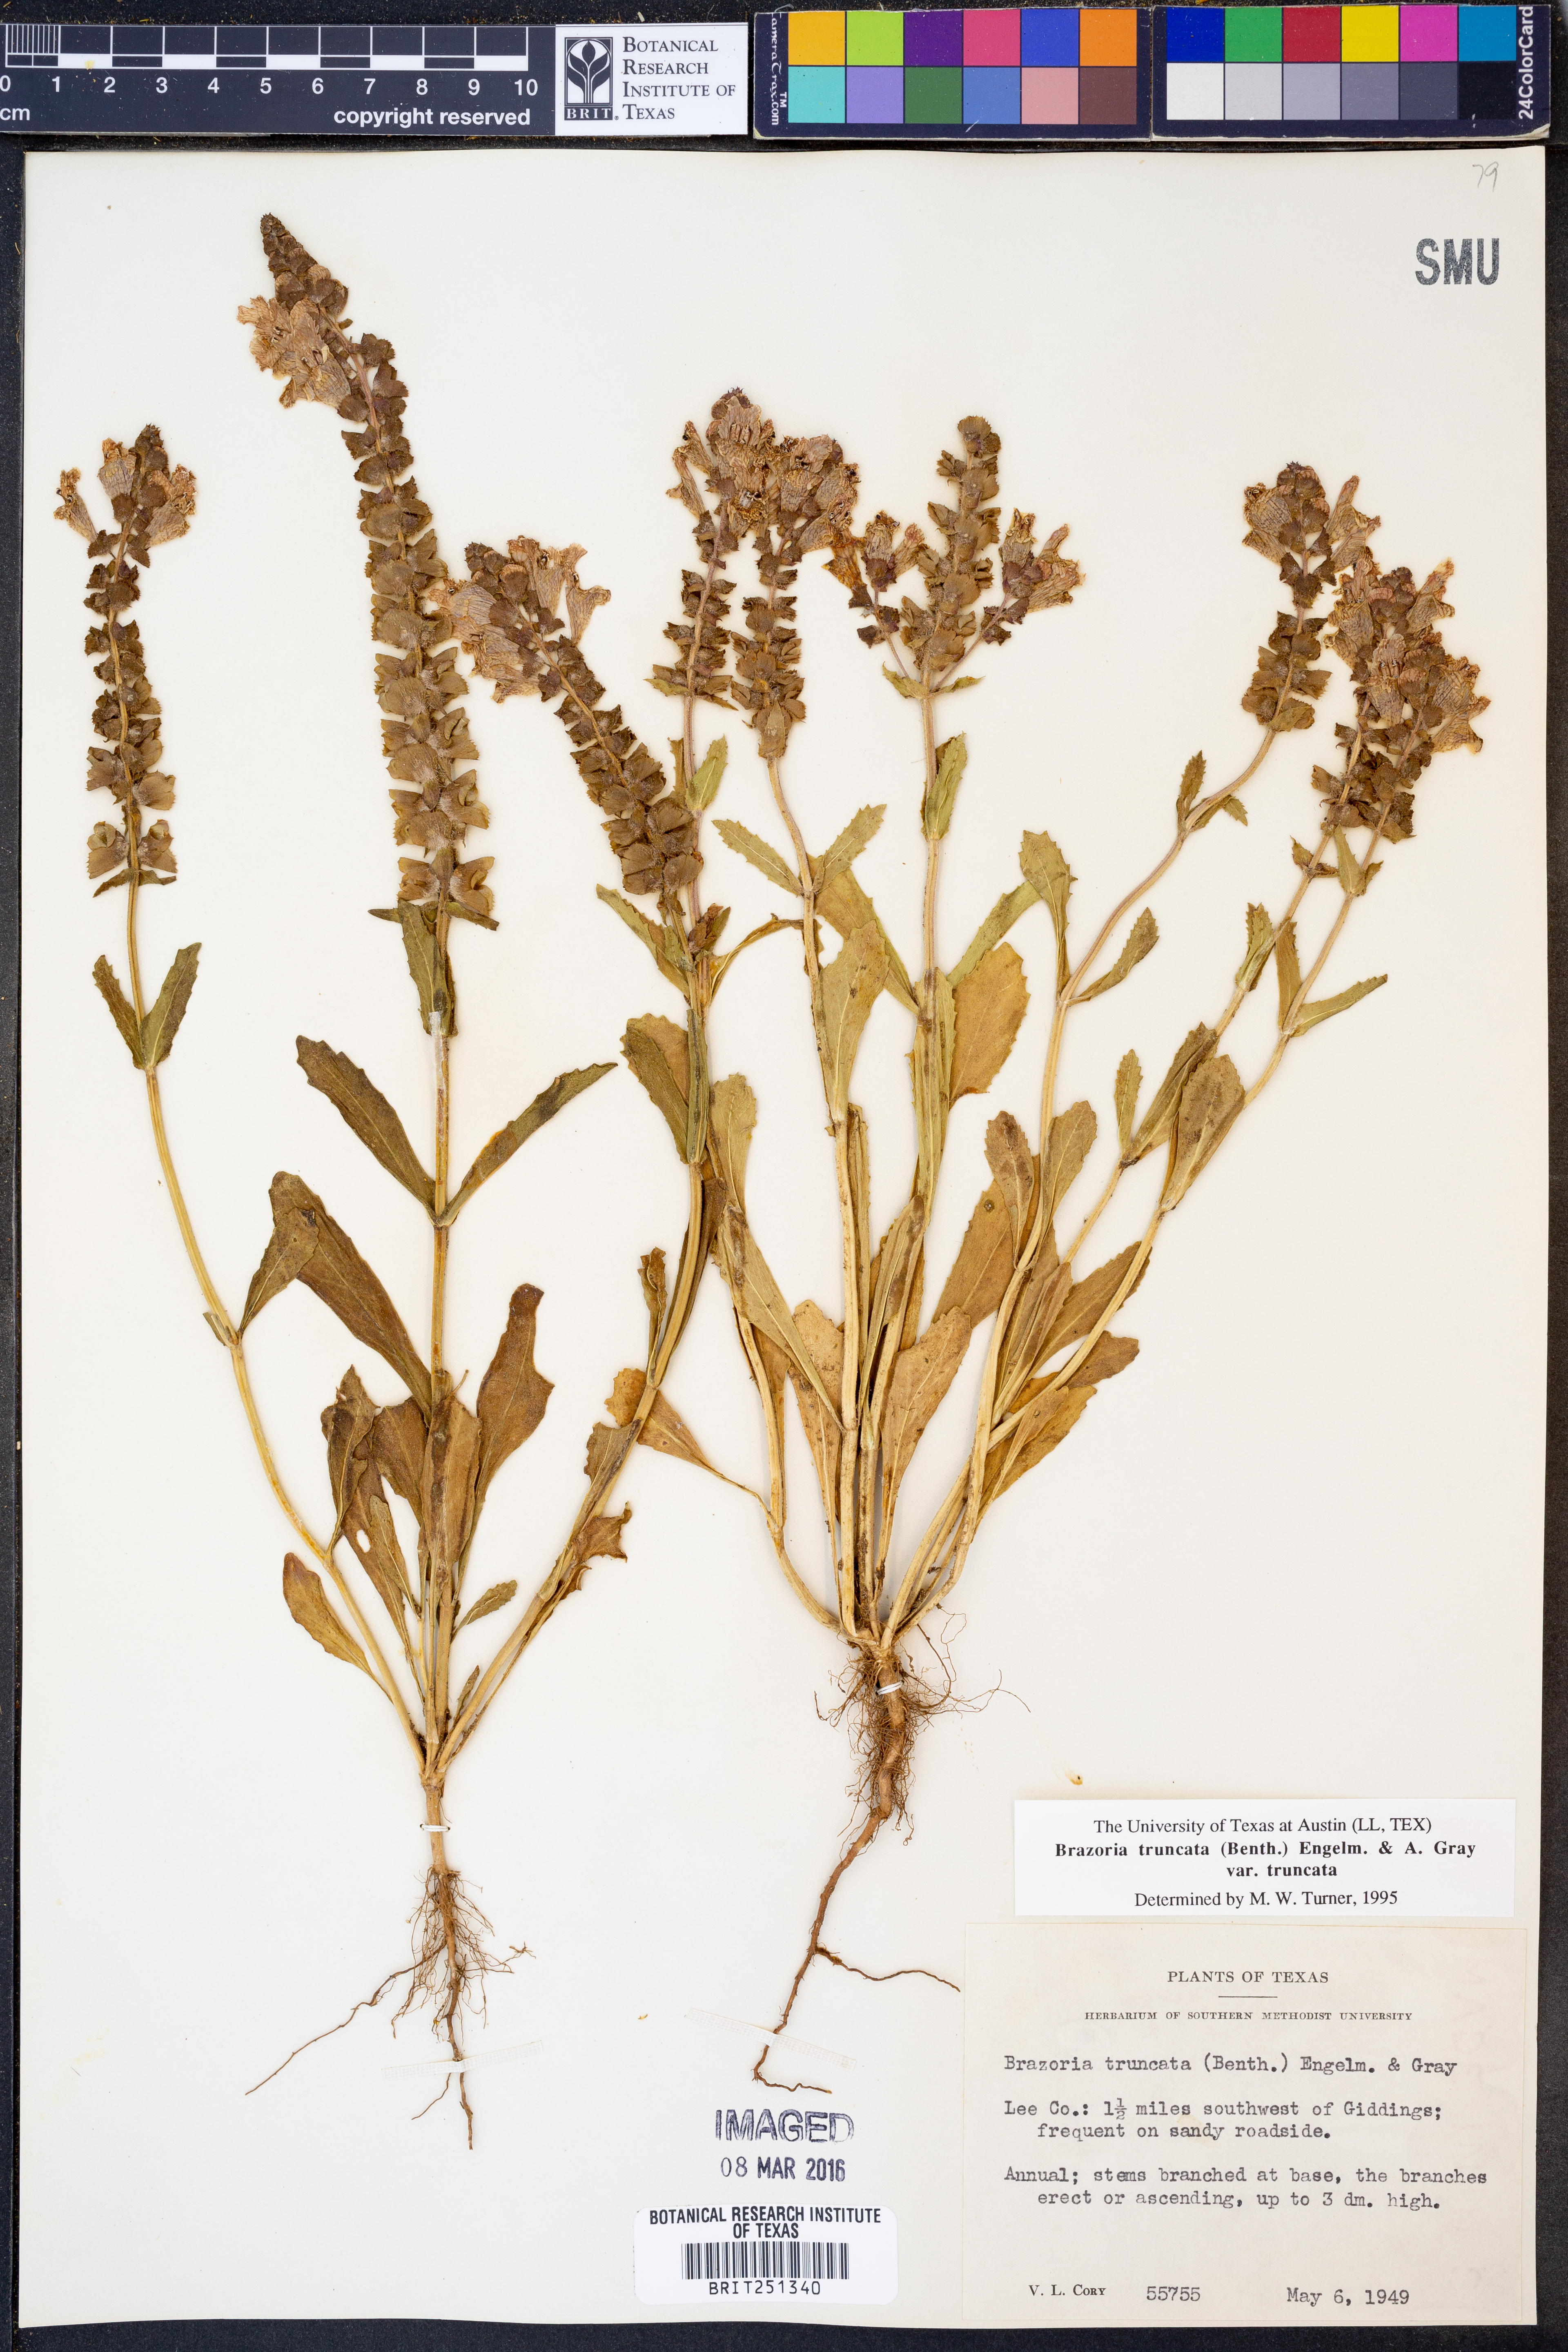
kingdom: Plantae
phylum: Tracheophyta
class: Magnoliopsida
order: Lamiales
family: Lamiaceae
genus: Brazoria
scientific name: Brazoria truncata
